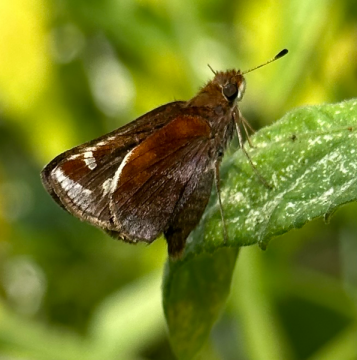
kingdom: Animalia
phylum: Arthropoda
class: Insecta
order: Lepidoptera
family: Hesperiidae
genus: Lon
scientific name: Lon zabulon
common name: Zabulon Skipper
